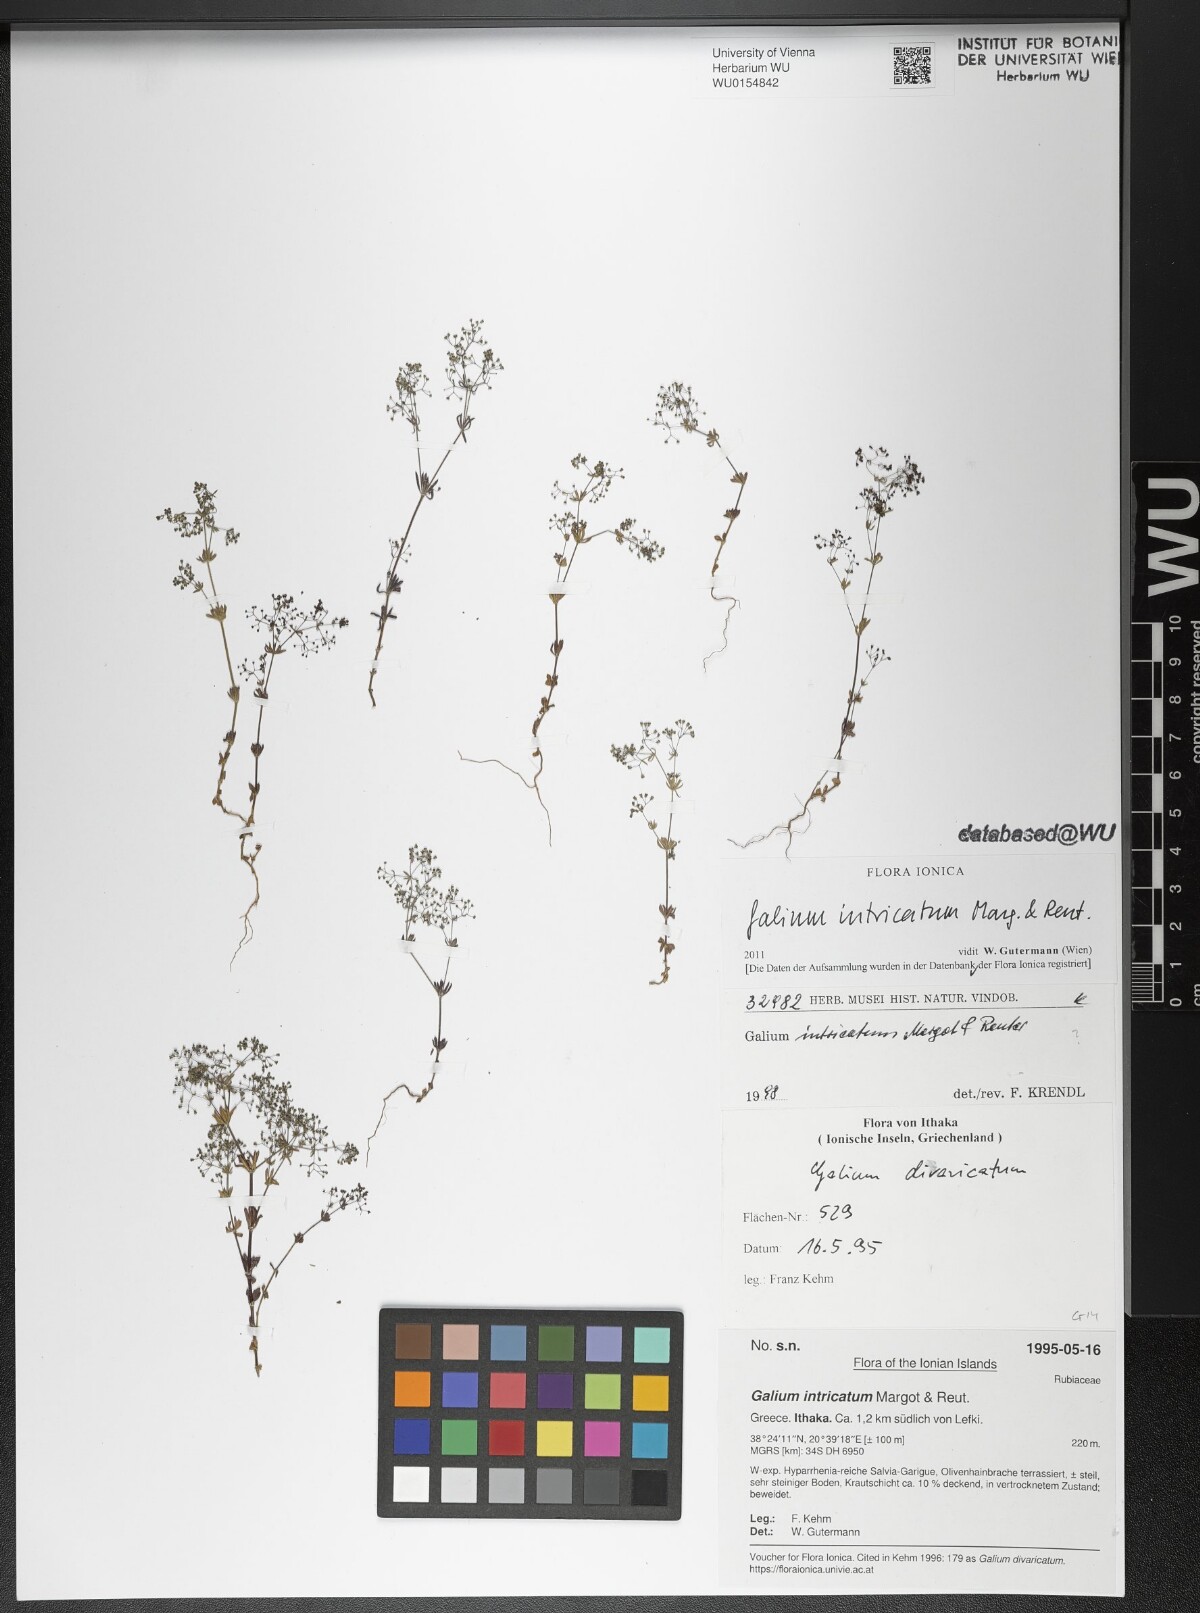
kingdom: Plantae
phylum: Tracheophyta
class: Magnoliopsida
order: Gentianales
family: Rubiaceae
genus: Galium
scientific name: Galium intricatum
